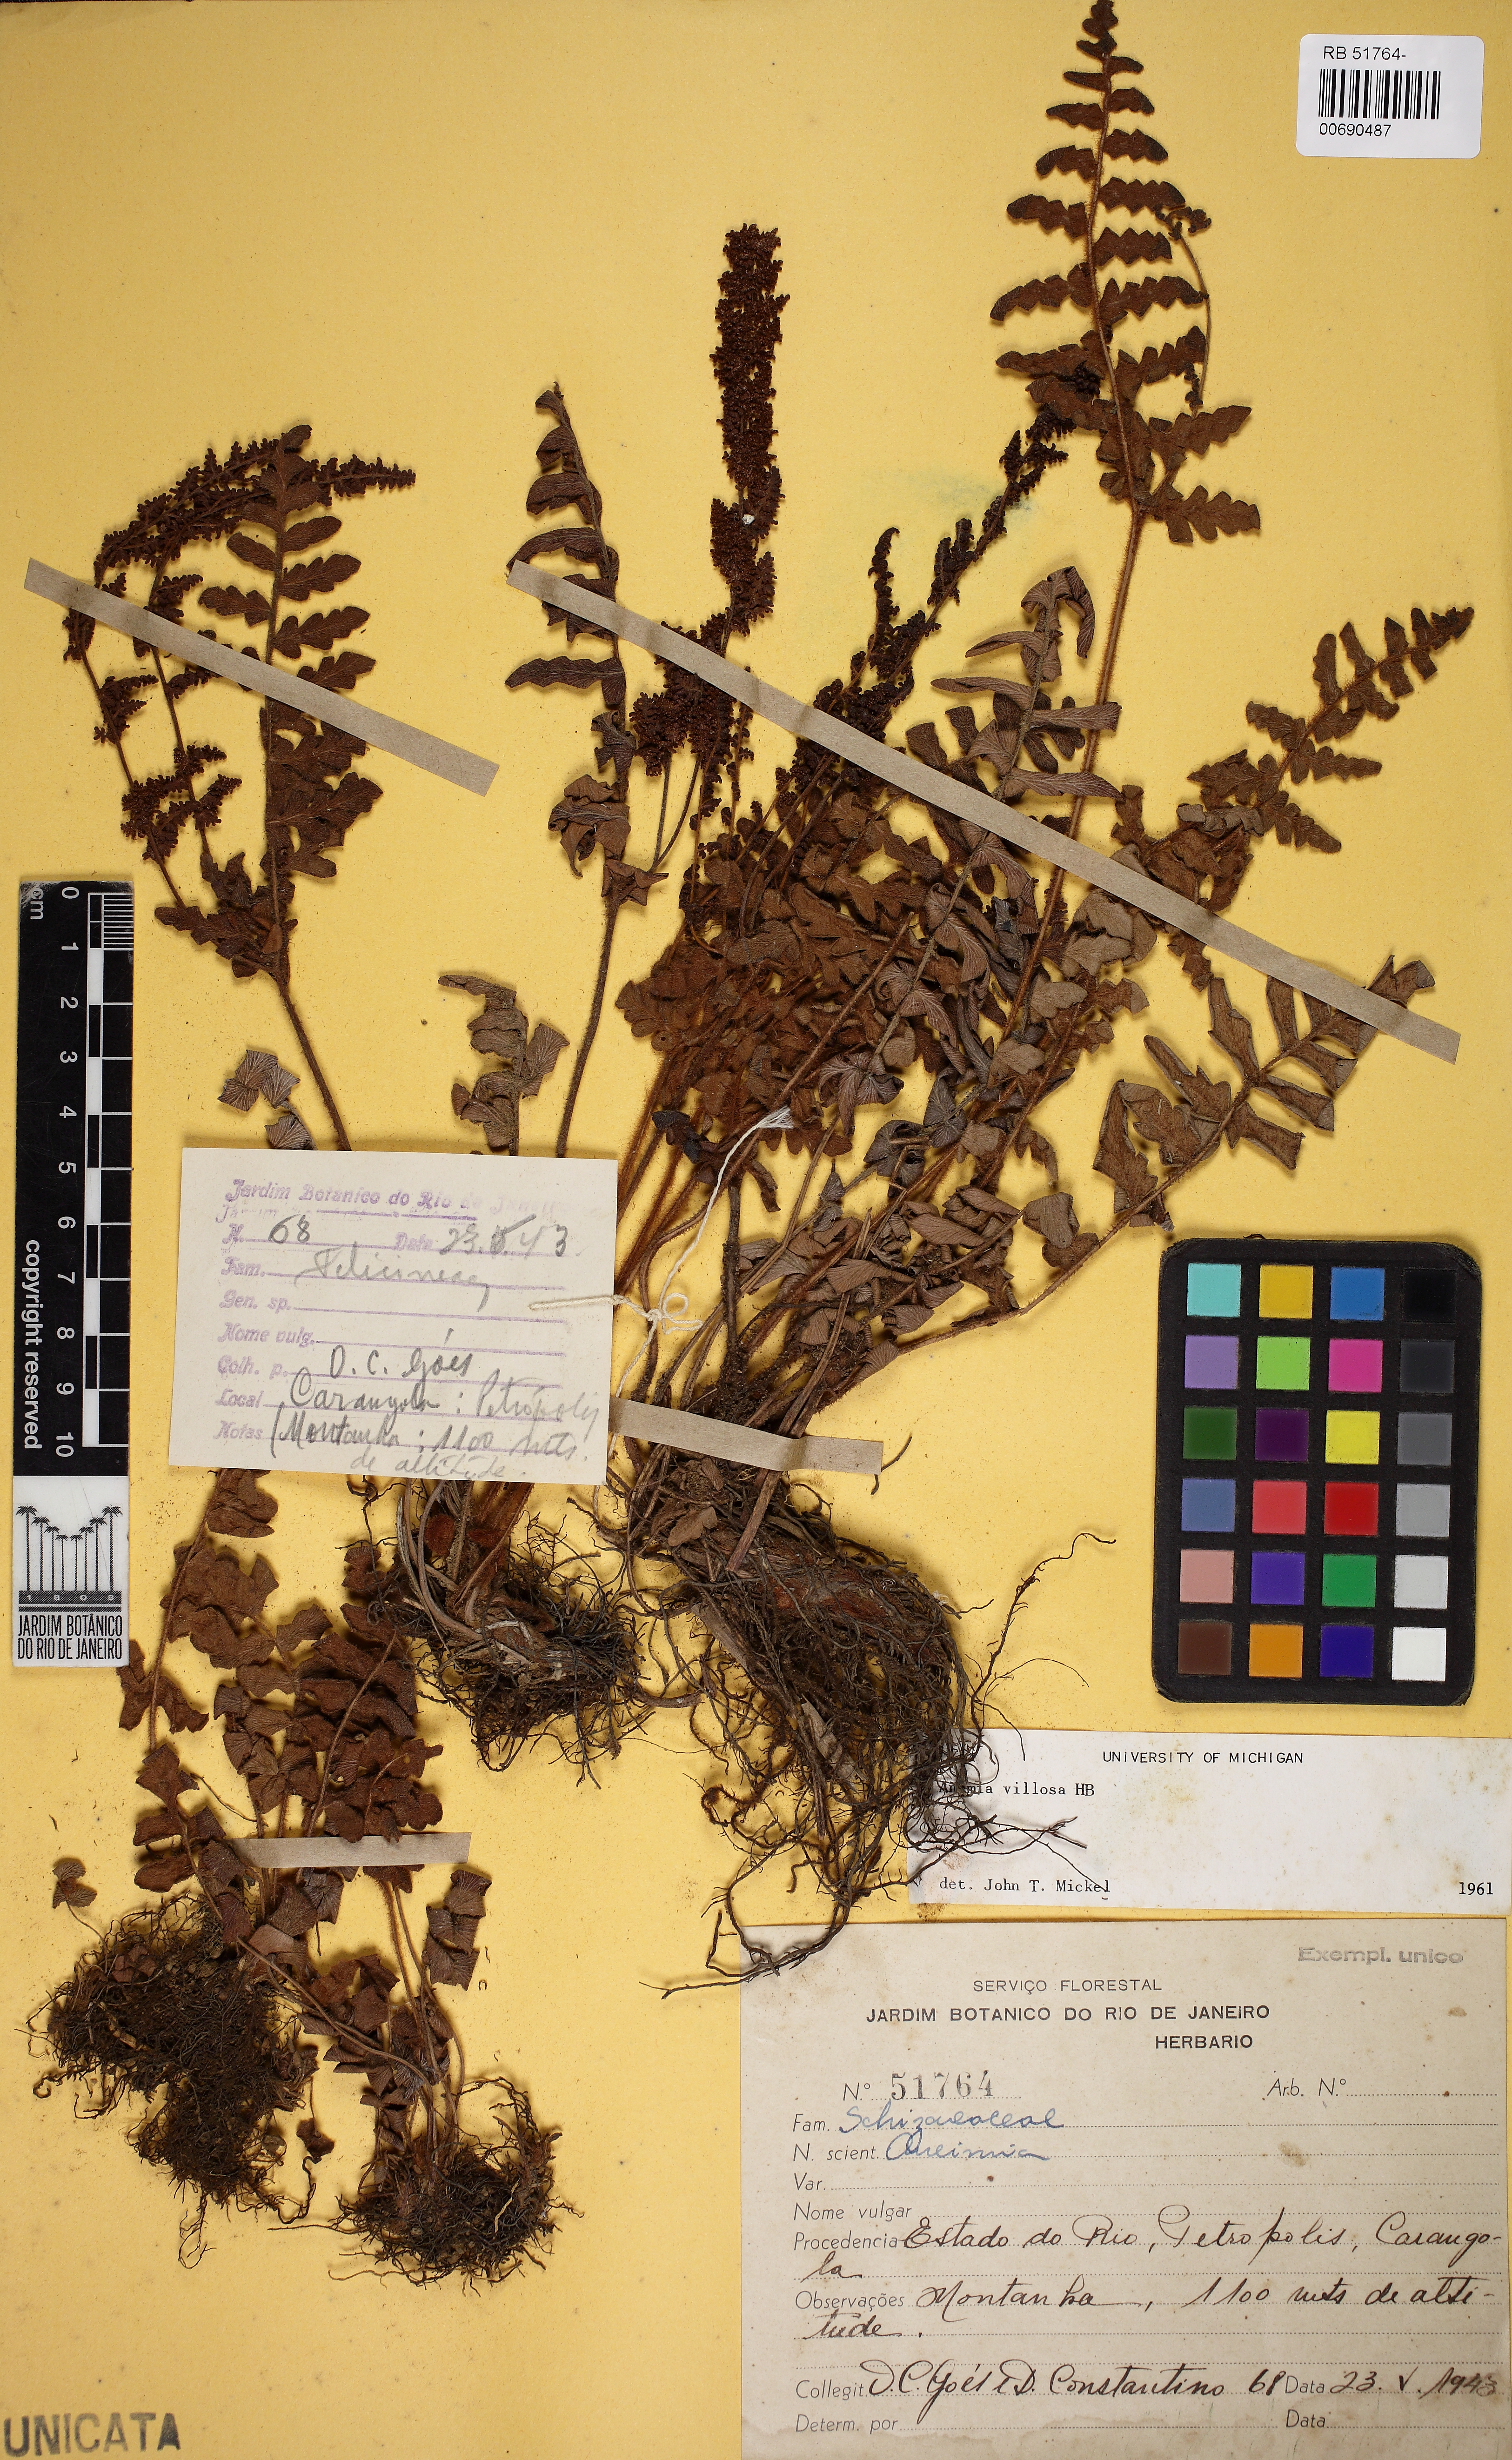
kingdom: Plantae
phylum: Tracheophyta
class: Polypodiopsida
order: Schizaeales
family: Anemiaceae
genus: Anemia
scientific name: Anemia villosa
